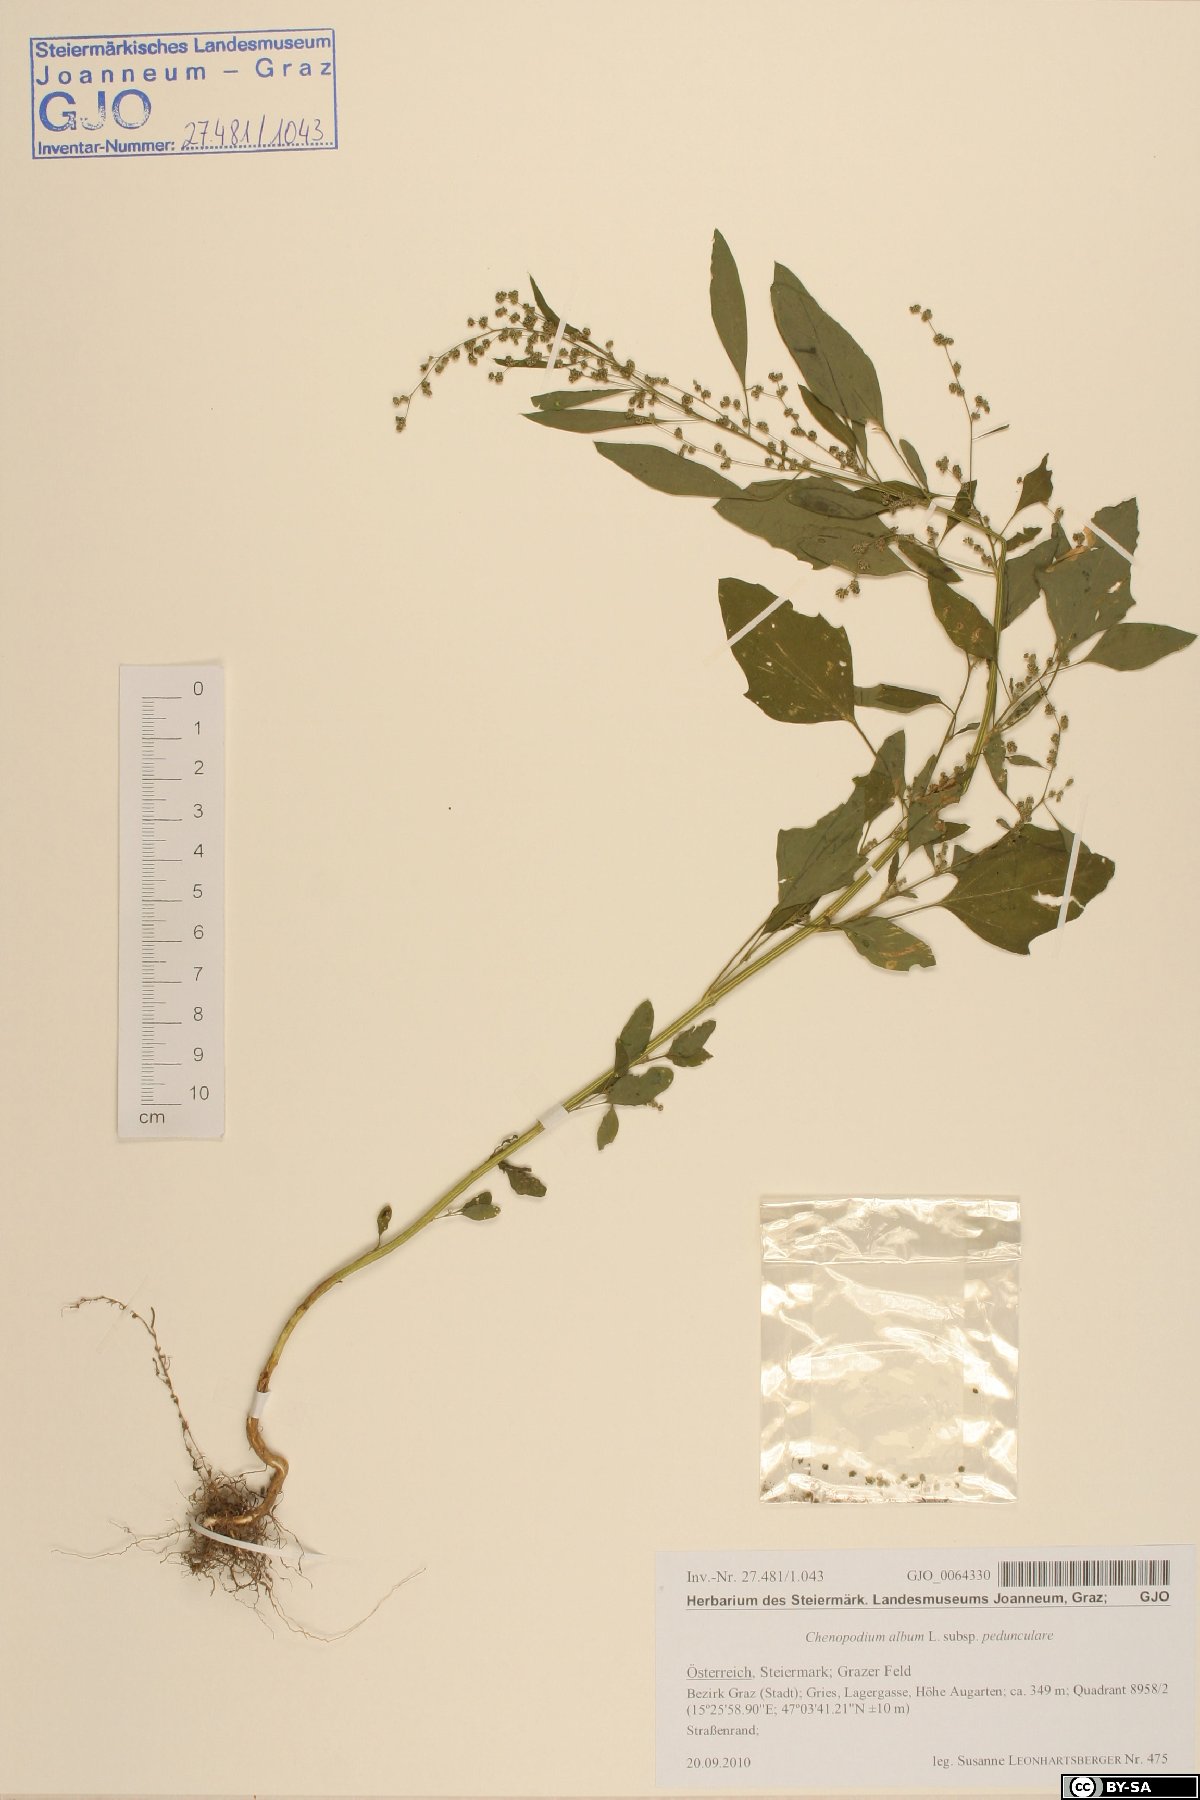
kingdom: Plantae
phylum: Tracheophyta
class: Magnoliopsida
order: Caryophyllales
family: Amaranthaceae
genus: Chenopodium
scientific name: Chenopodium album
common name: Fat-hen
